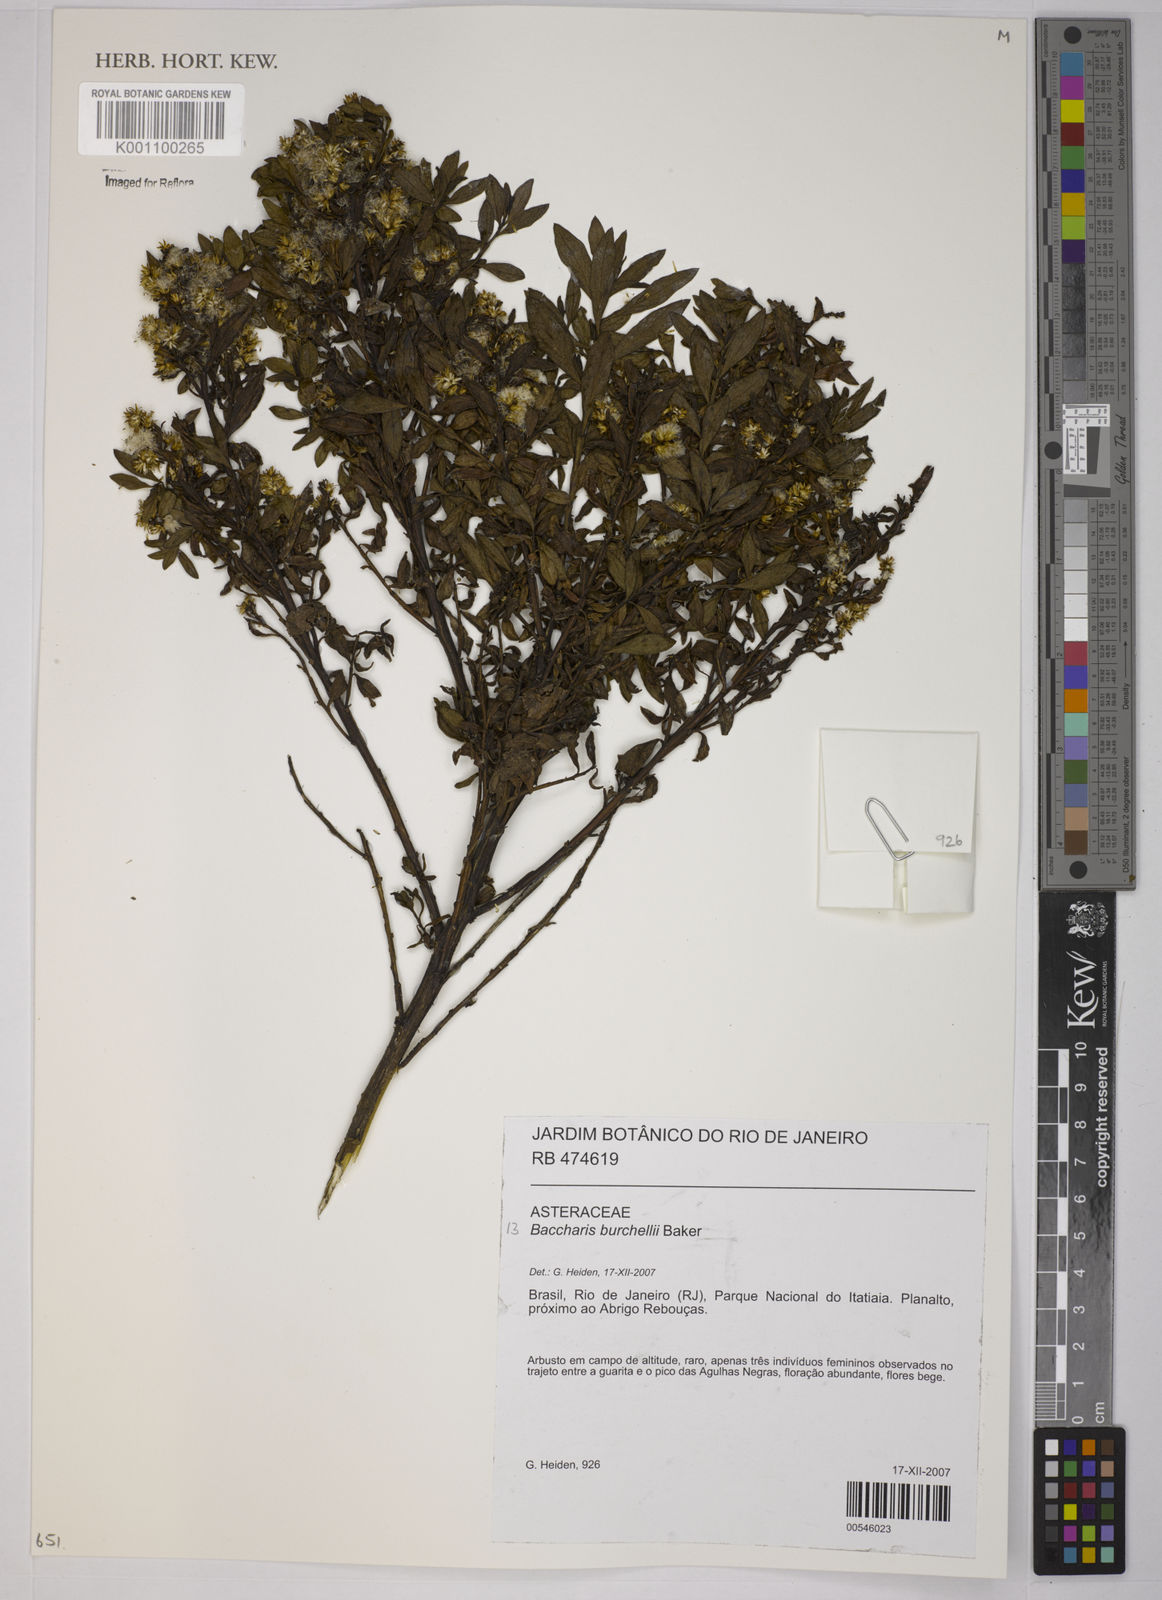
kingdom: Plantae
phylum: Tracheophyta
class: Magnoliopsida
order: Asterales
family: Asteraceae
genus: Baccharis
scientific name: Baccharis burchellii
